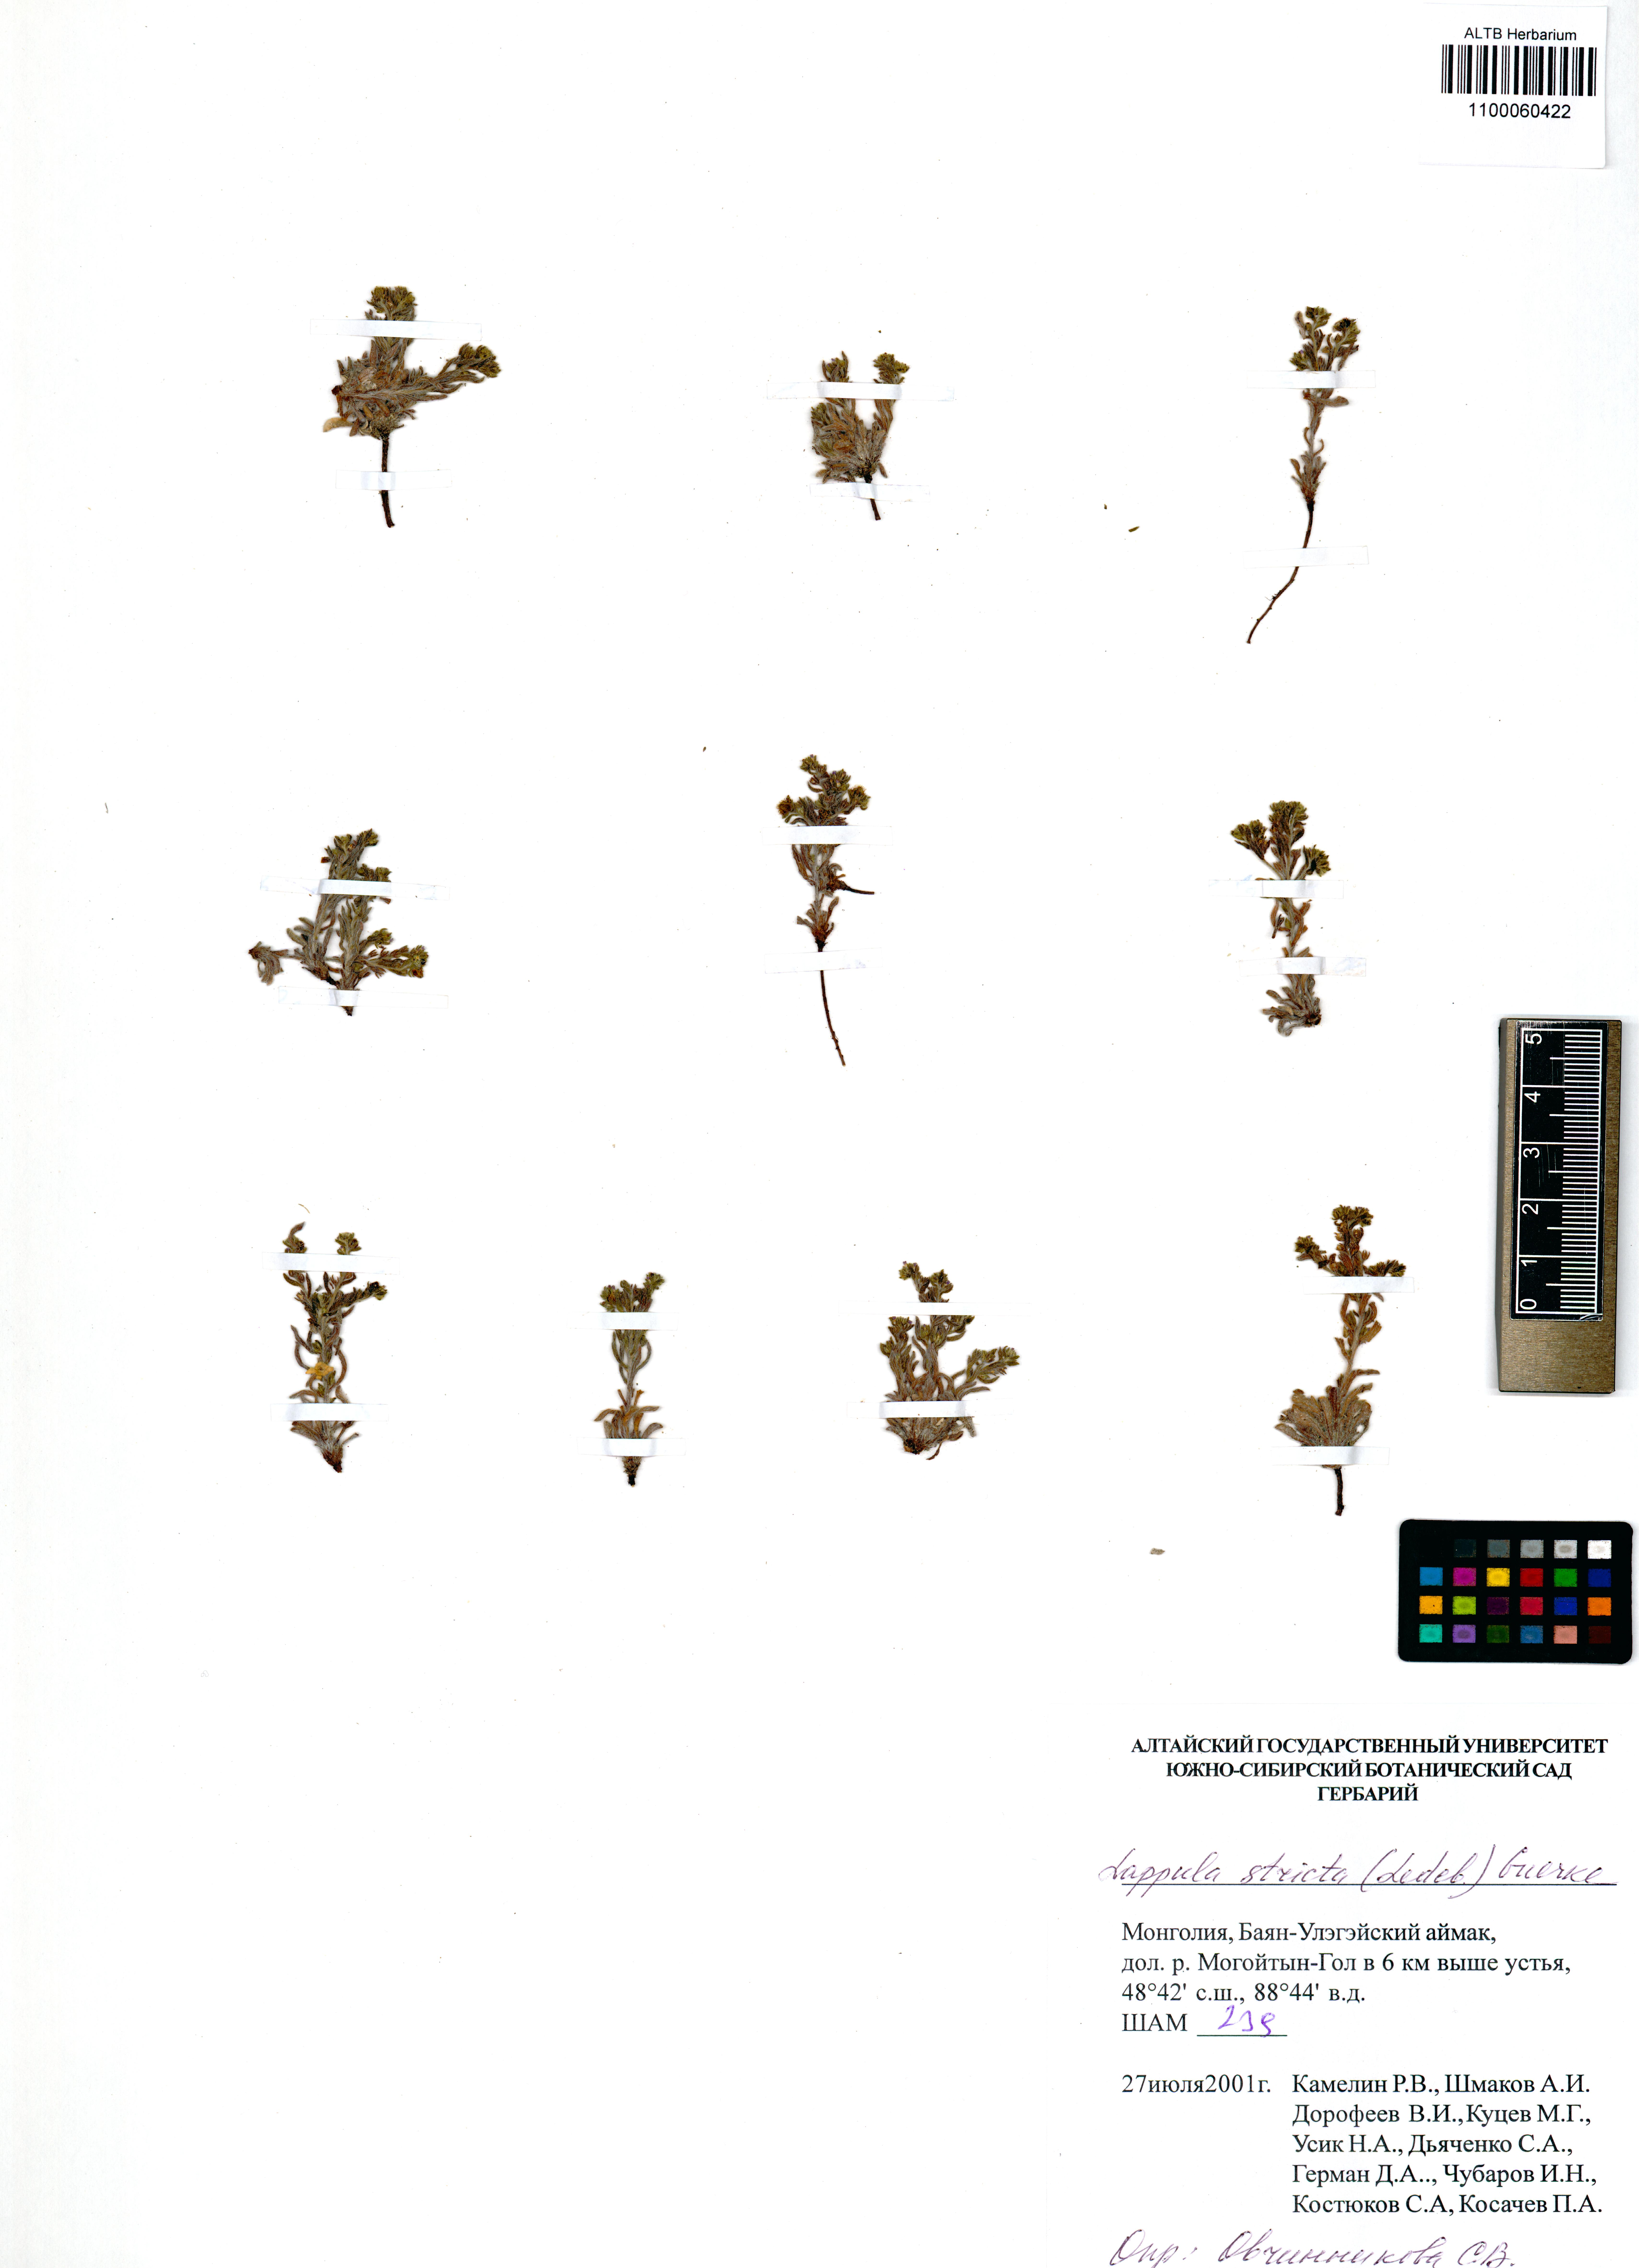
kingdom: Plantae
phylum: Tracheophyta
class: Magnoliopsida
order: Boraginales
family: Boraginaceae
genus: Lappula
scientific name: Lappula stricta
